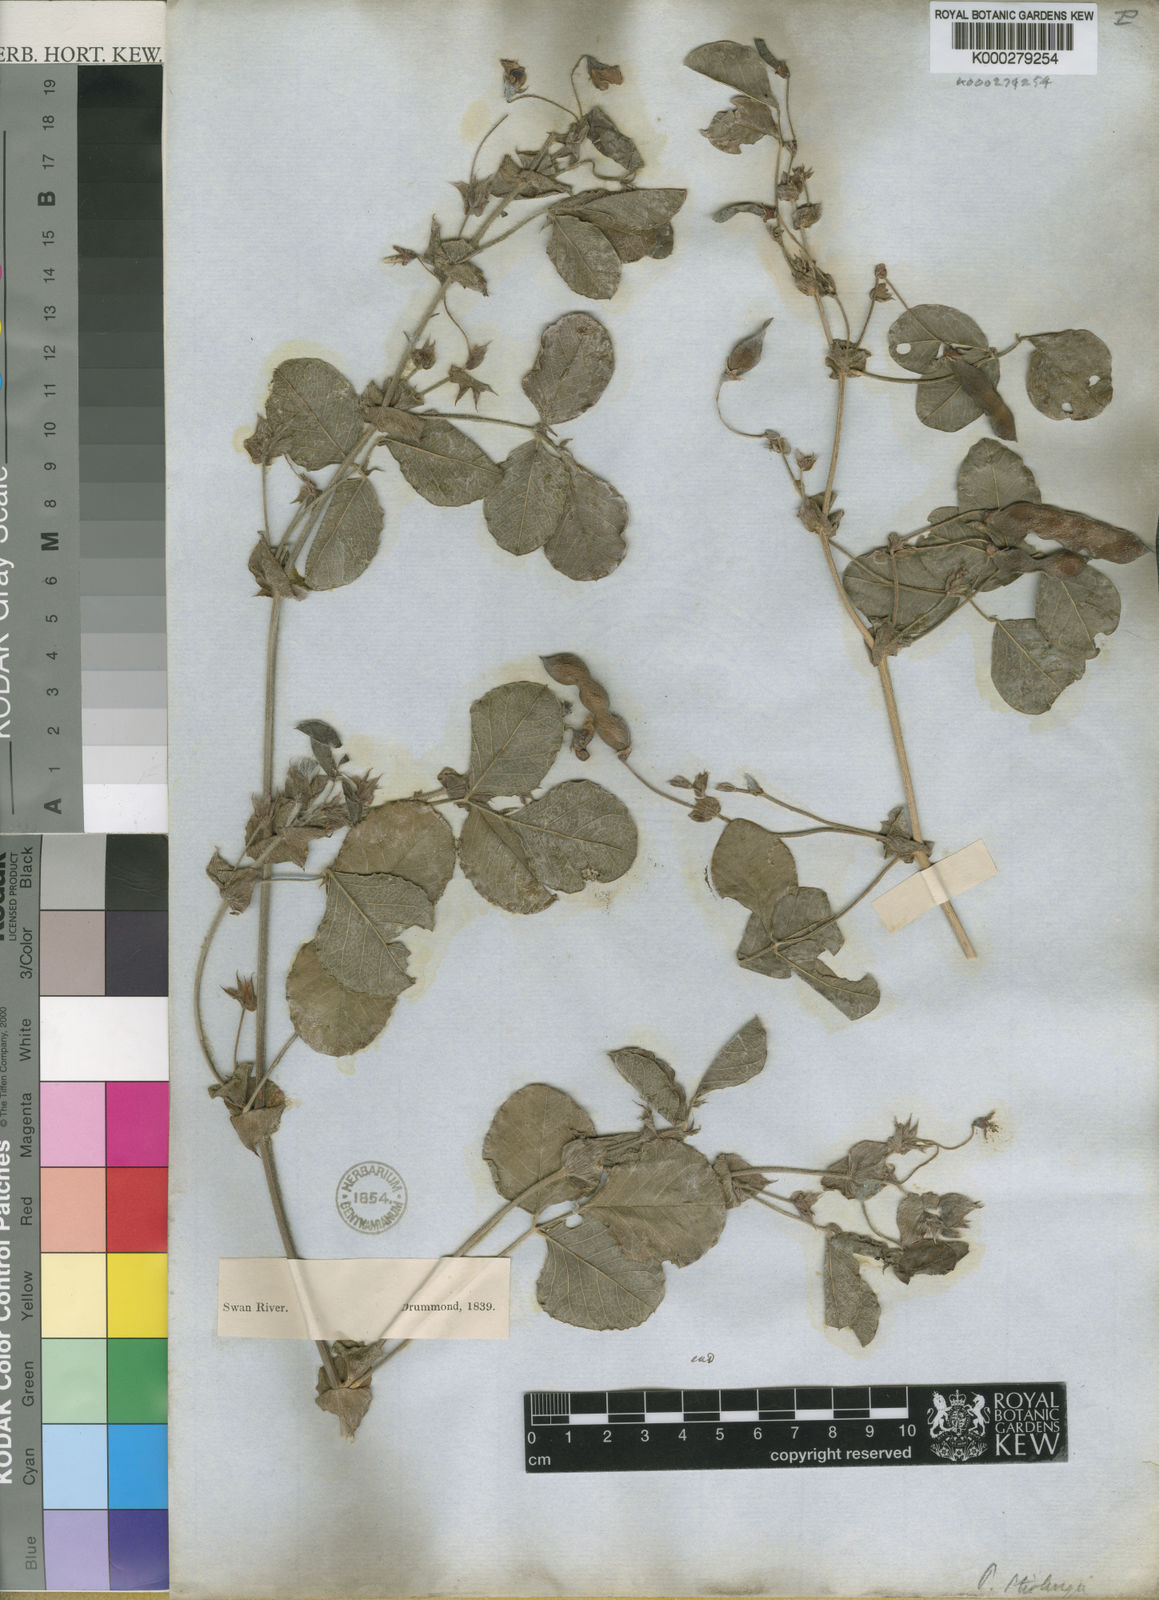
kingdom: Plantae
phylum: Tracheophyta
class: Magnoliopsida
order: Fabales
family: Fabaceae
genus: Kennedia
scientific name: Kennedia stirlingii
